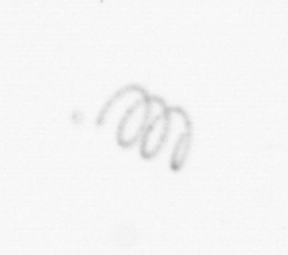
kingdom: Chromista
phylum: Ochrophyta
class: Bacillariophyceae
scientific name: Bacillariophyceae
